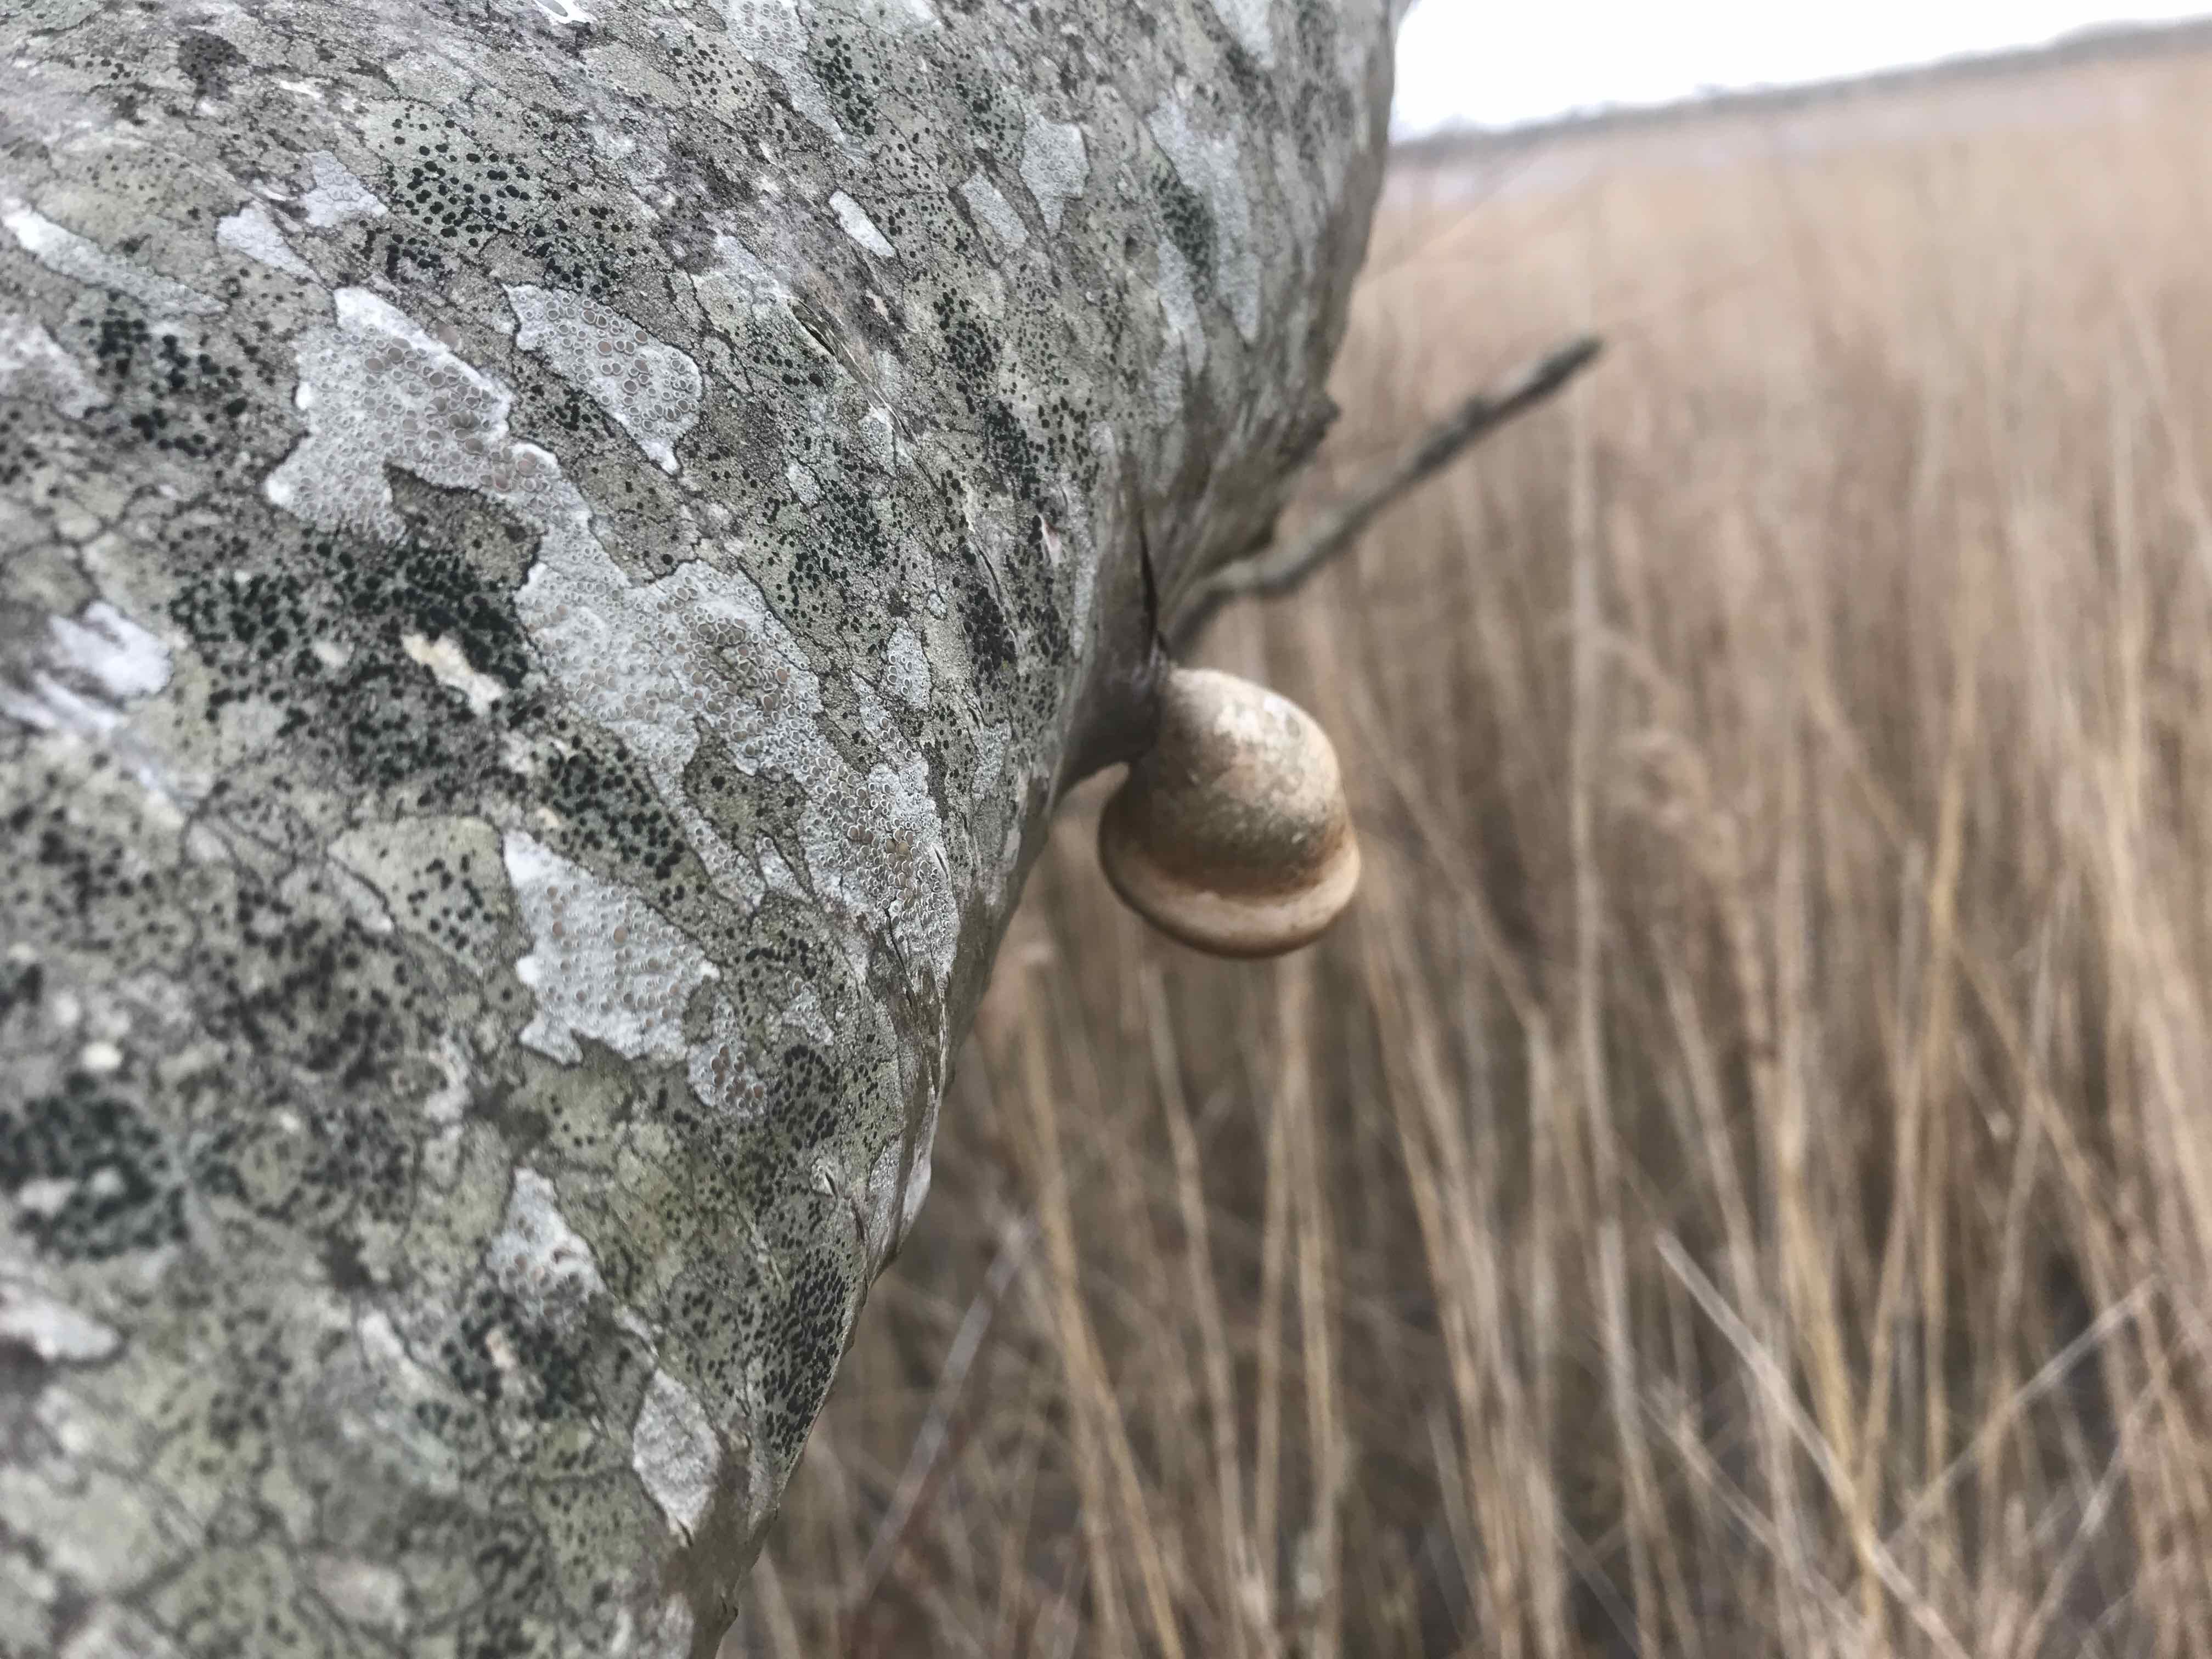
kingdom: Fungi
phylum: Basidiomycota
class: Agaricomycetes
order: Polyporales
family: Fomitopsidaceae
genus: Fomitopsis
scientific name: Fomitopsis betulina
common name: birkeporesvamp
